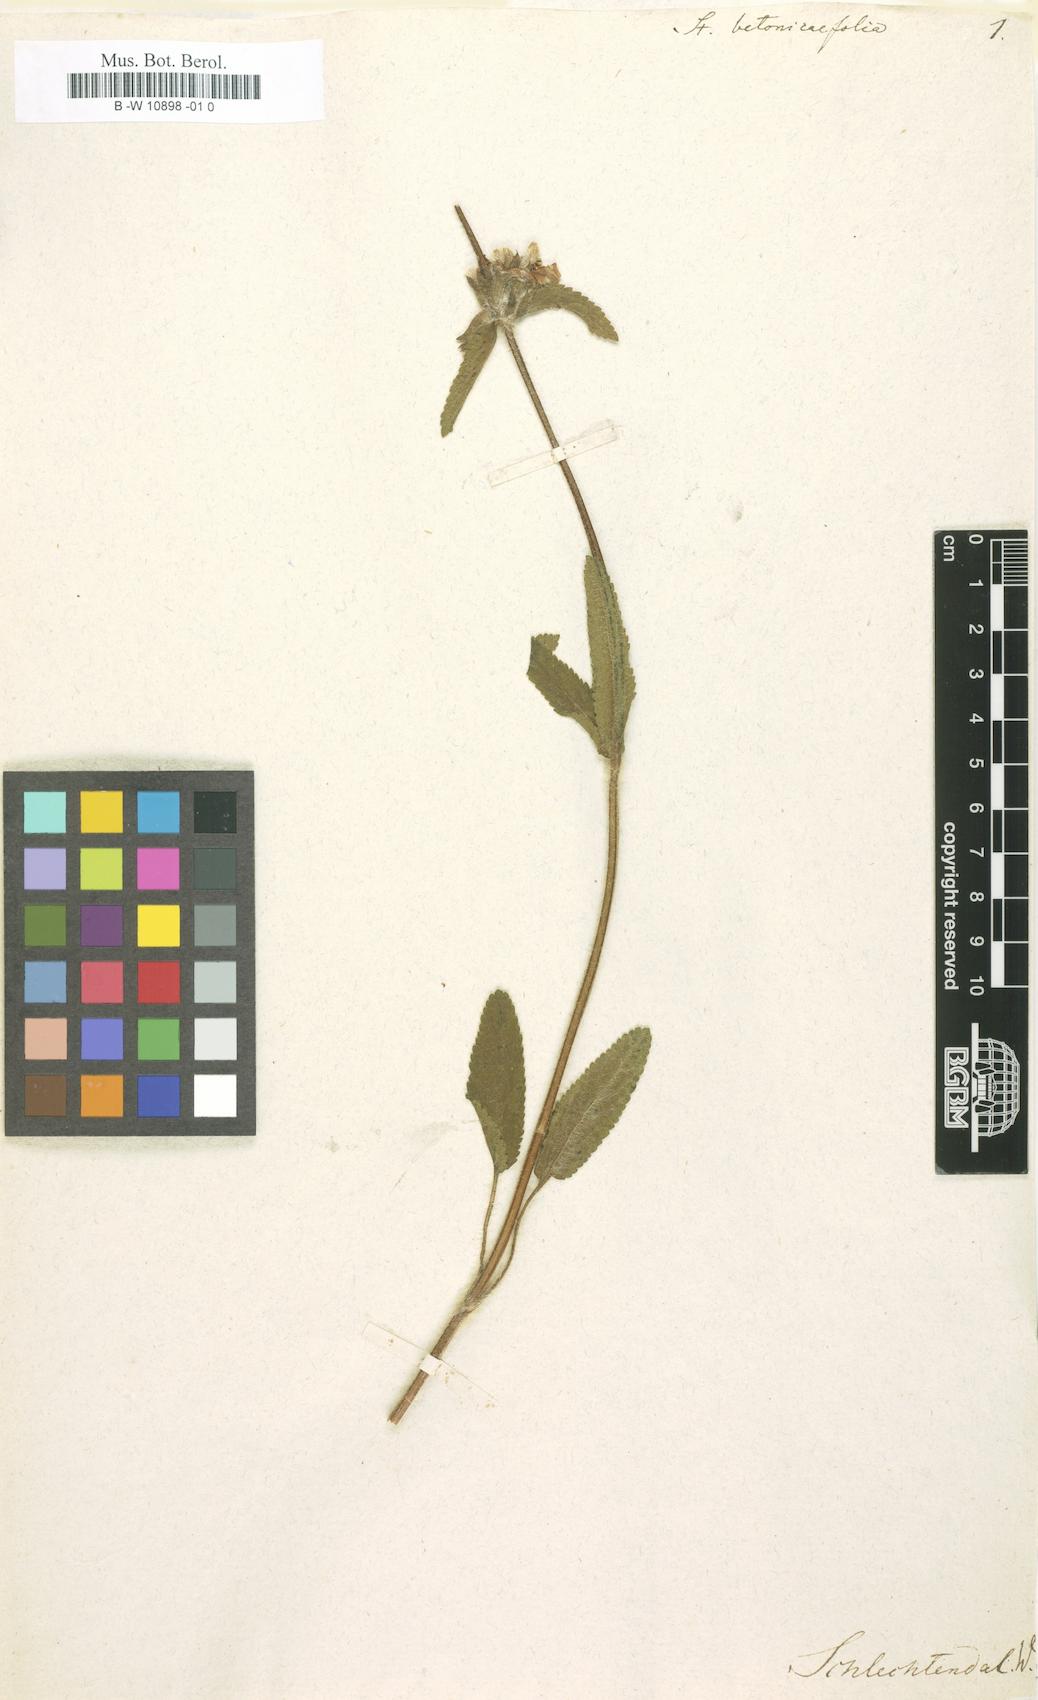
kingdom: Plantae
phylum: Tracheophyta
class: Magnoliopsida
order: Lamiales
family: Lamiaceae
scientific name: Lamiaceae
